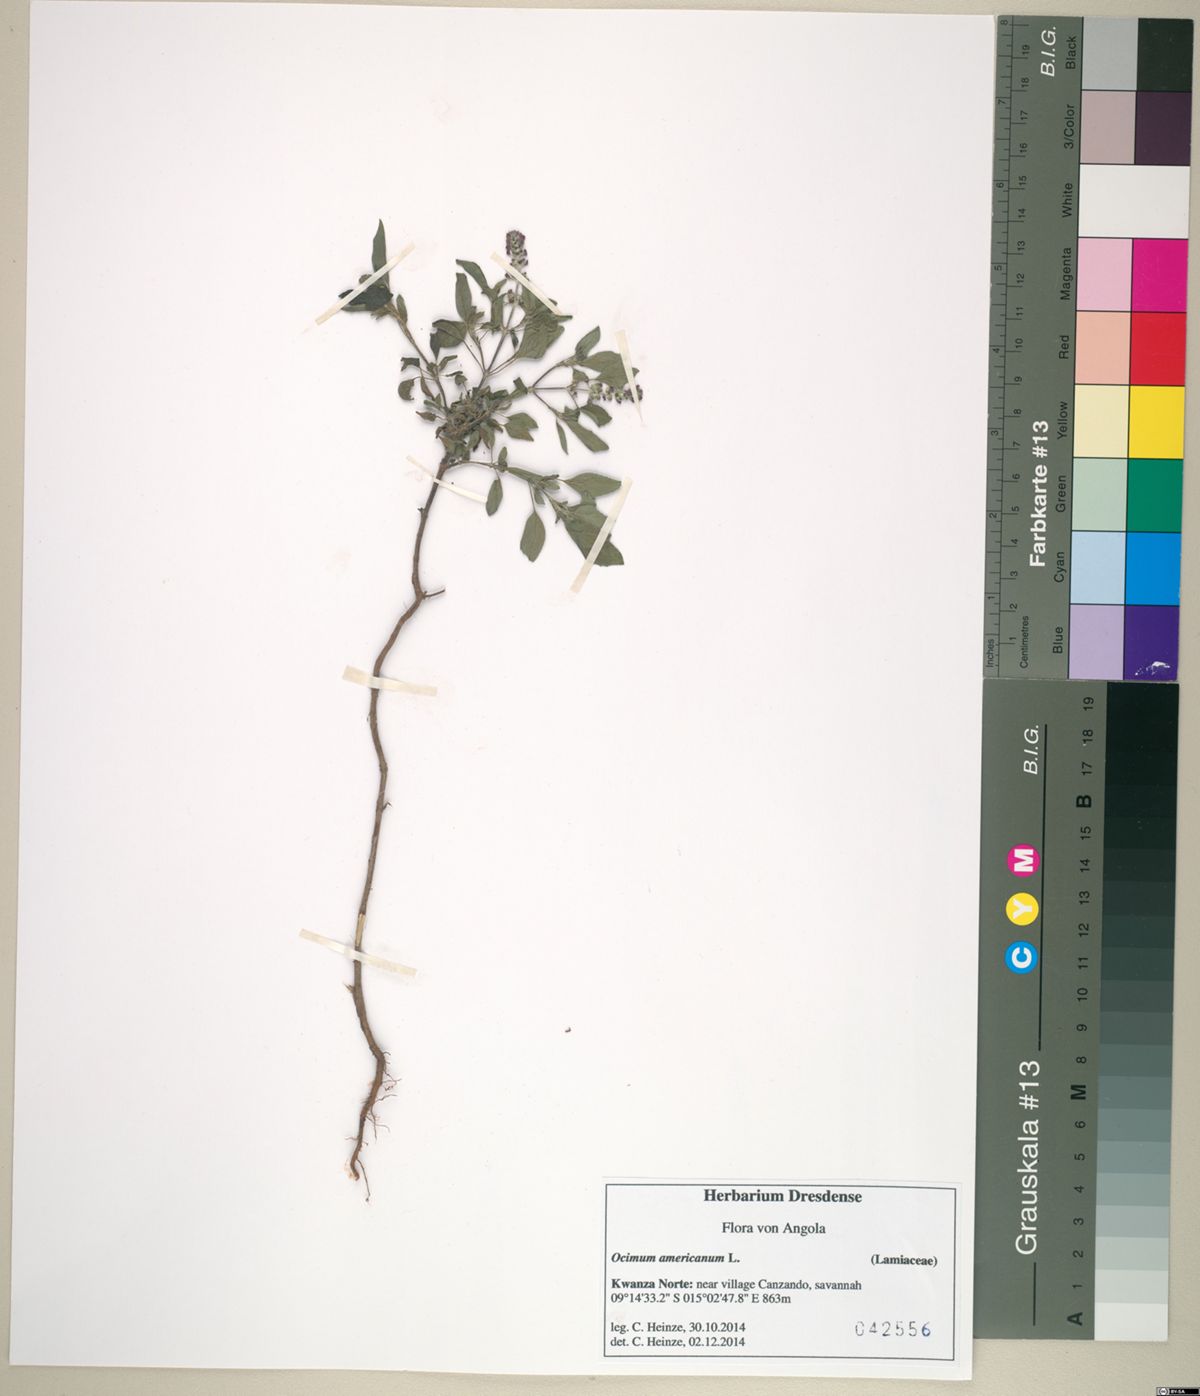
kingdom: Plantae
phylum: Tracheophyta
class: Magnoliopsida
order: Lamiales
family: Lamiaceae
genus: Ocimum
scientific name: Ocimum americanum
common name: American basil
